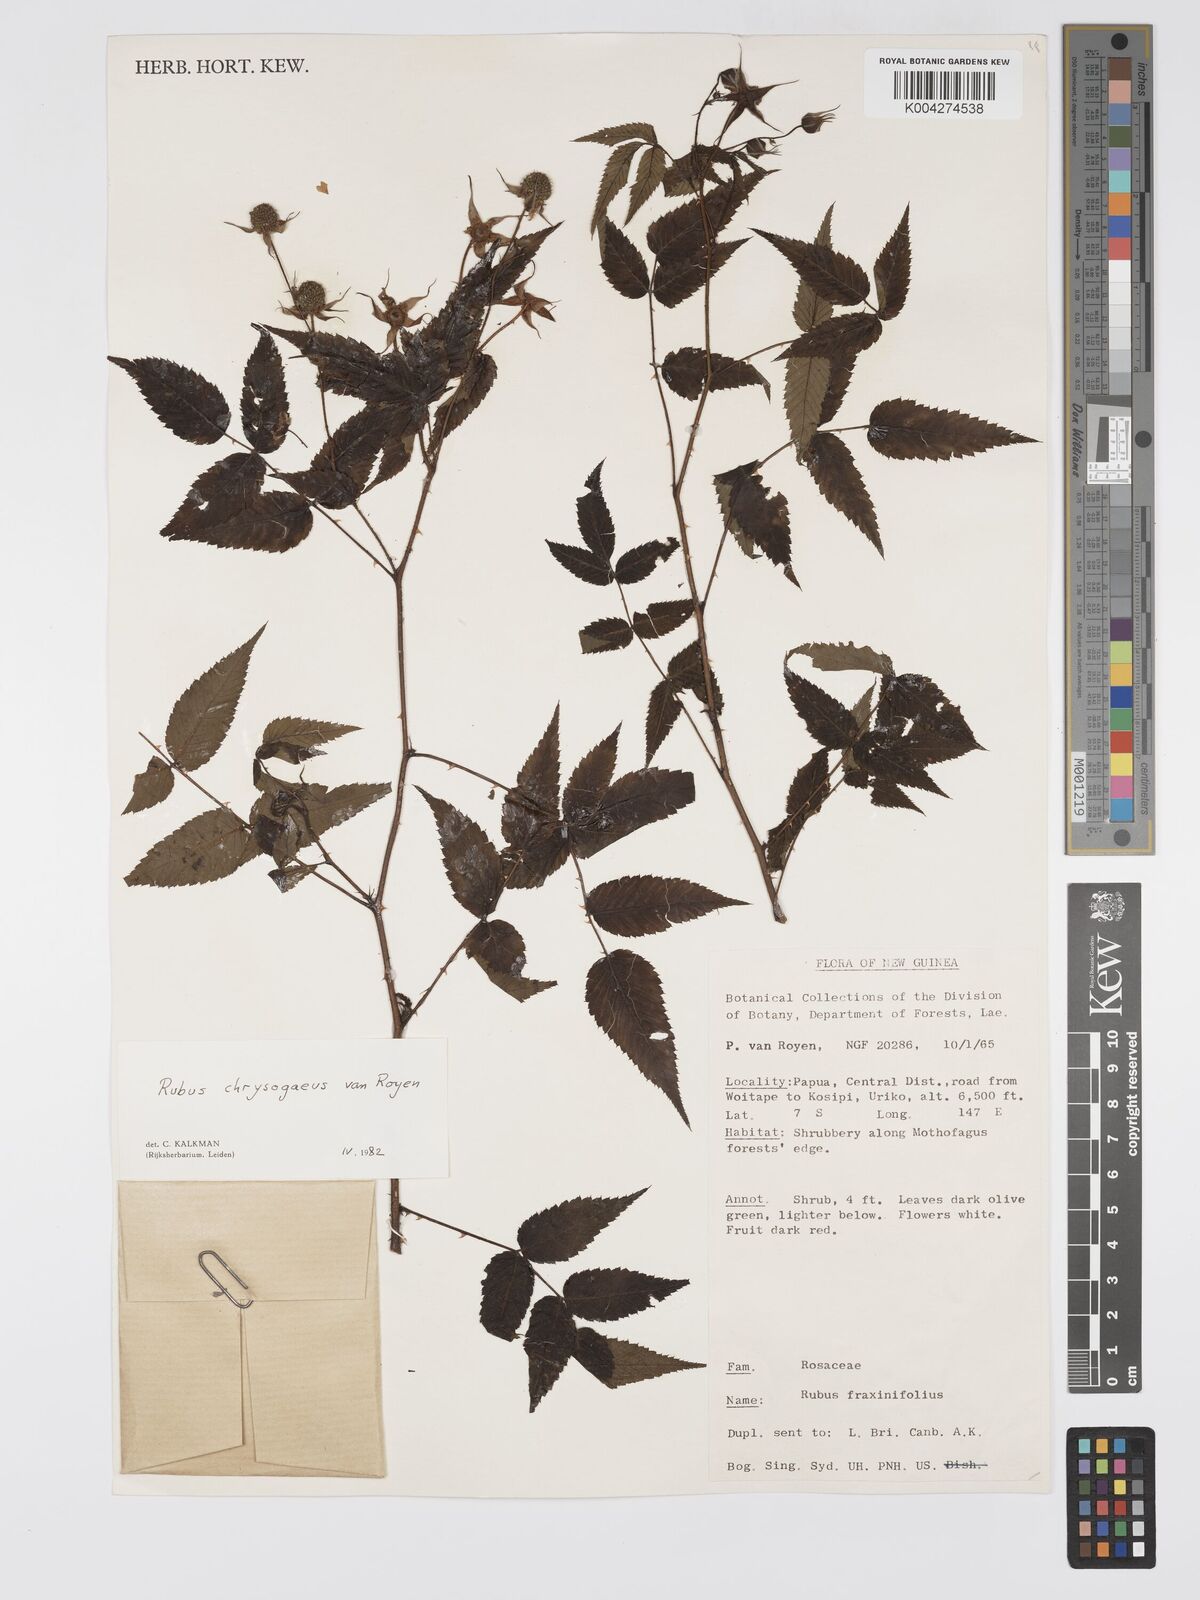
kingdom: Plantae
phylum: Tracheophyta
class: Magnoliopsida
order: Rosales
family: Rosaceae
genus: Rubus
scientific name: Rubus chrysogaeus
